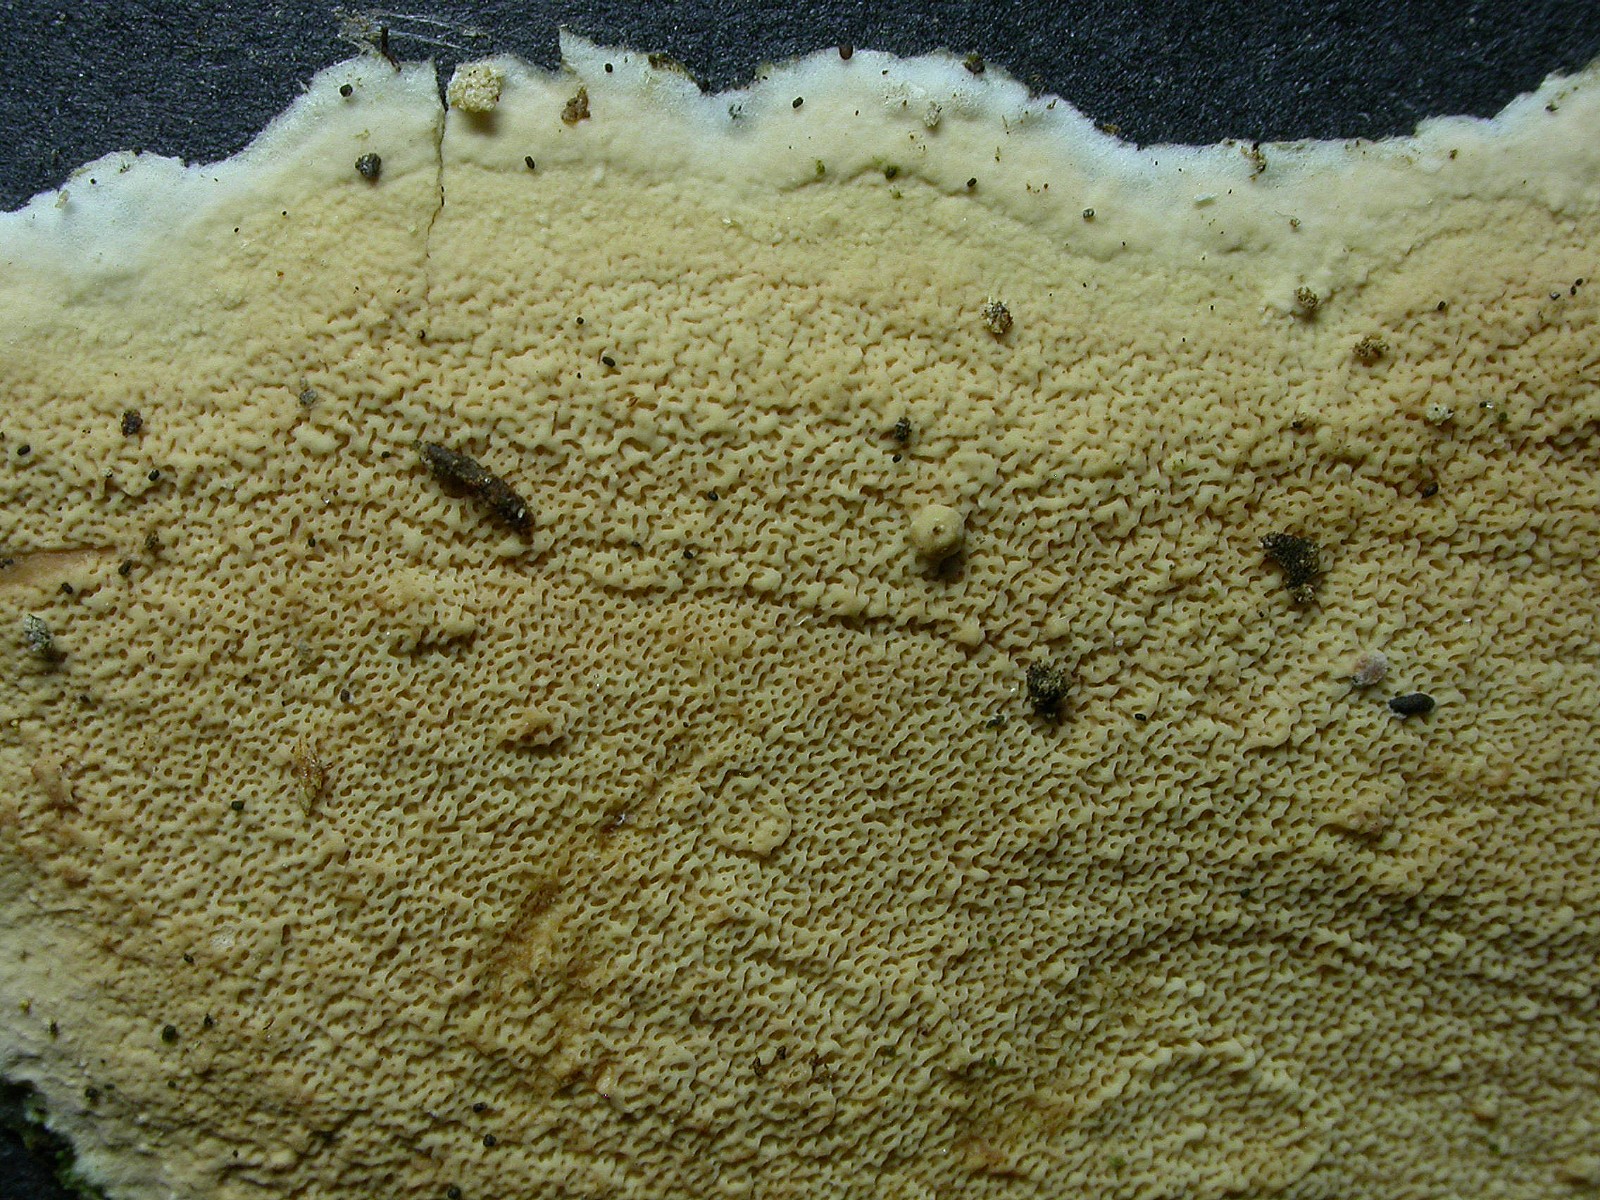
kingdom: Fungi
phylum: Basidiomycota
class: Agaricomycetes
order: Polyporales
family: Irpicaceae
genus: Crystallicutis
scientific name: Crystallicutis serpens
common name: gråviolet barkhinde
